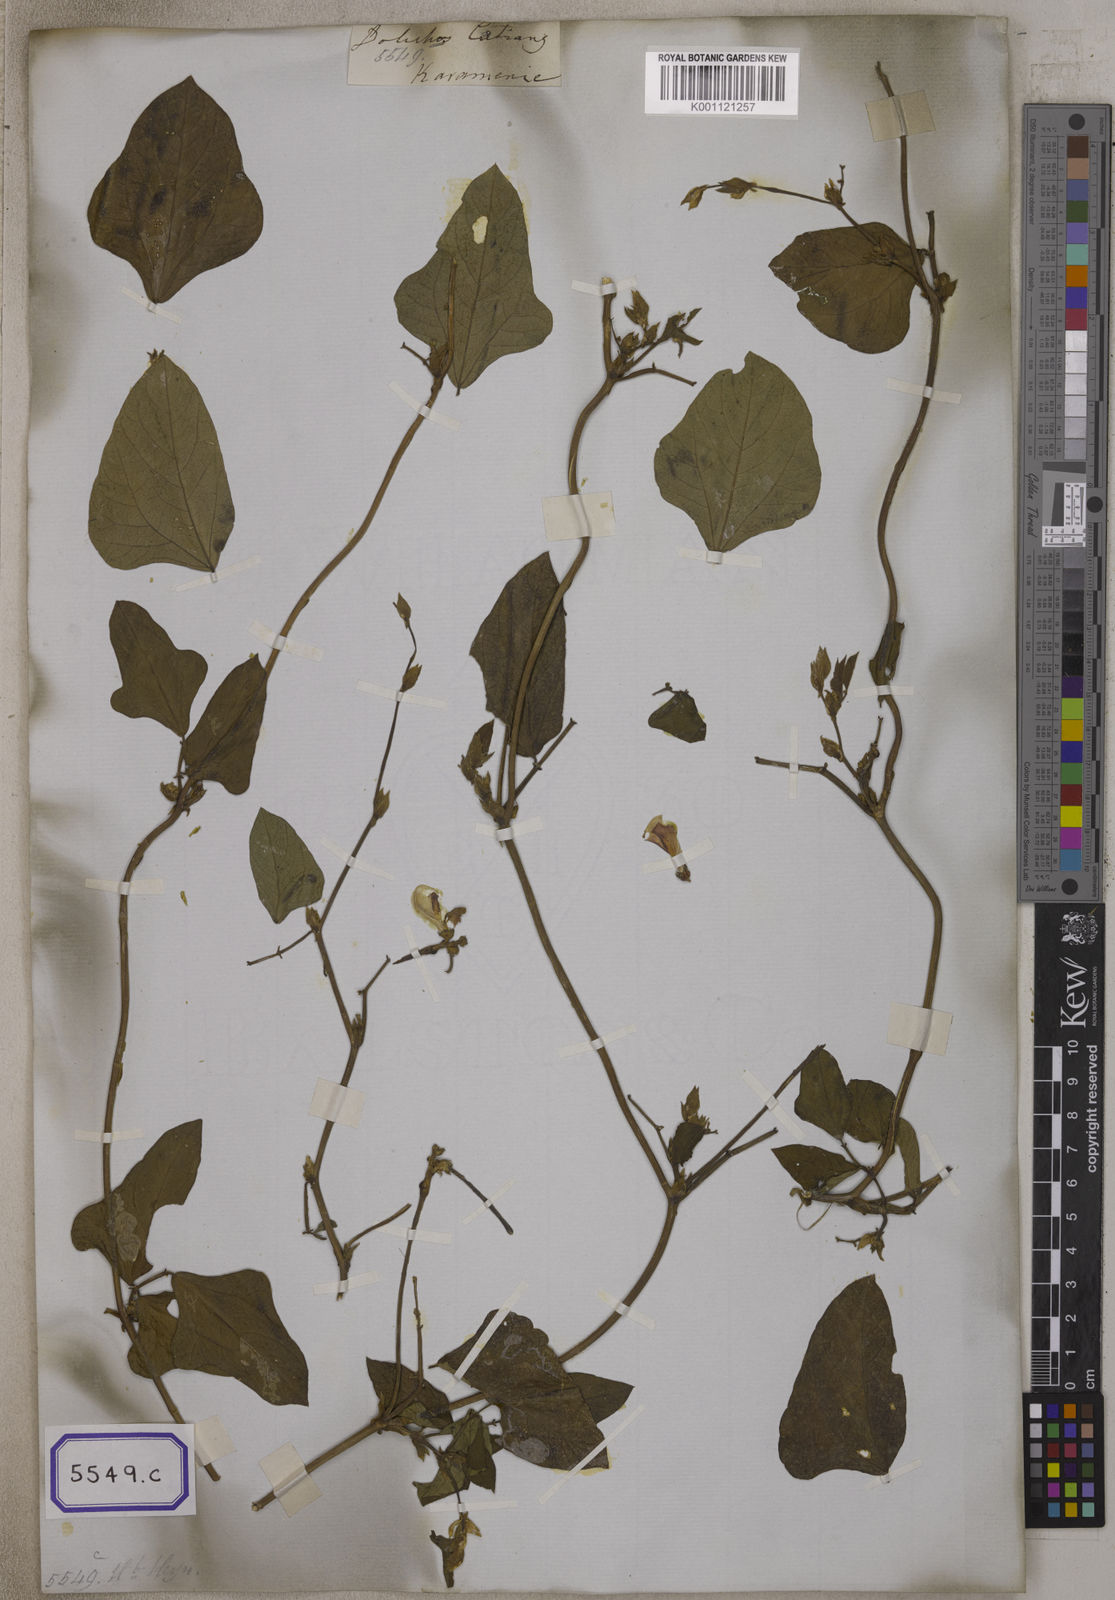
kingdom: Plantae
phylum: Tracheophyta
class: Magnoliopsida
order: Fabales
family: Fabaceae
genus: Vigna
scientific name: Vigna unguiculata
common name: Cowpea
